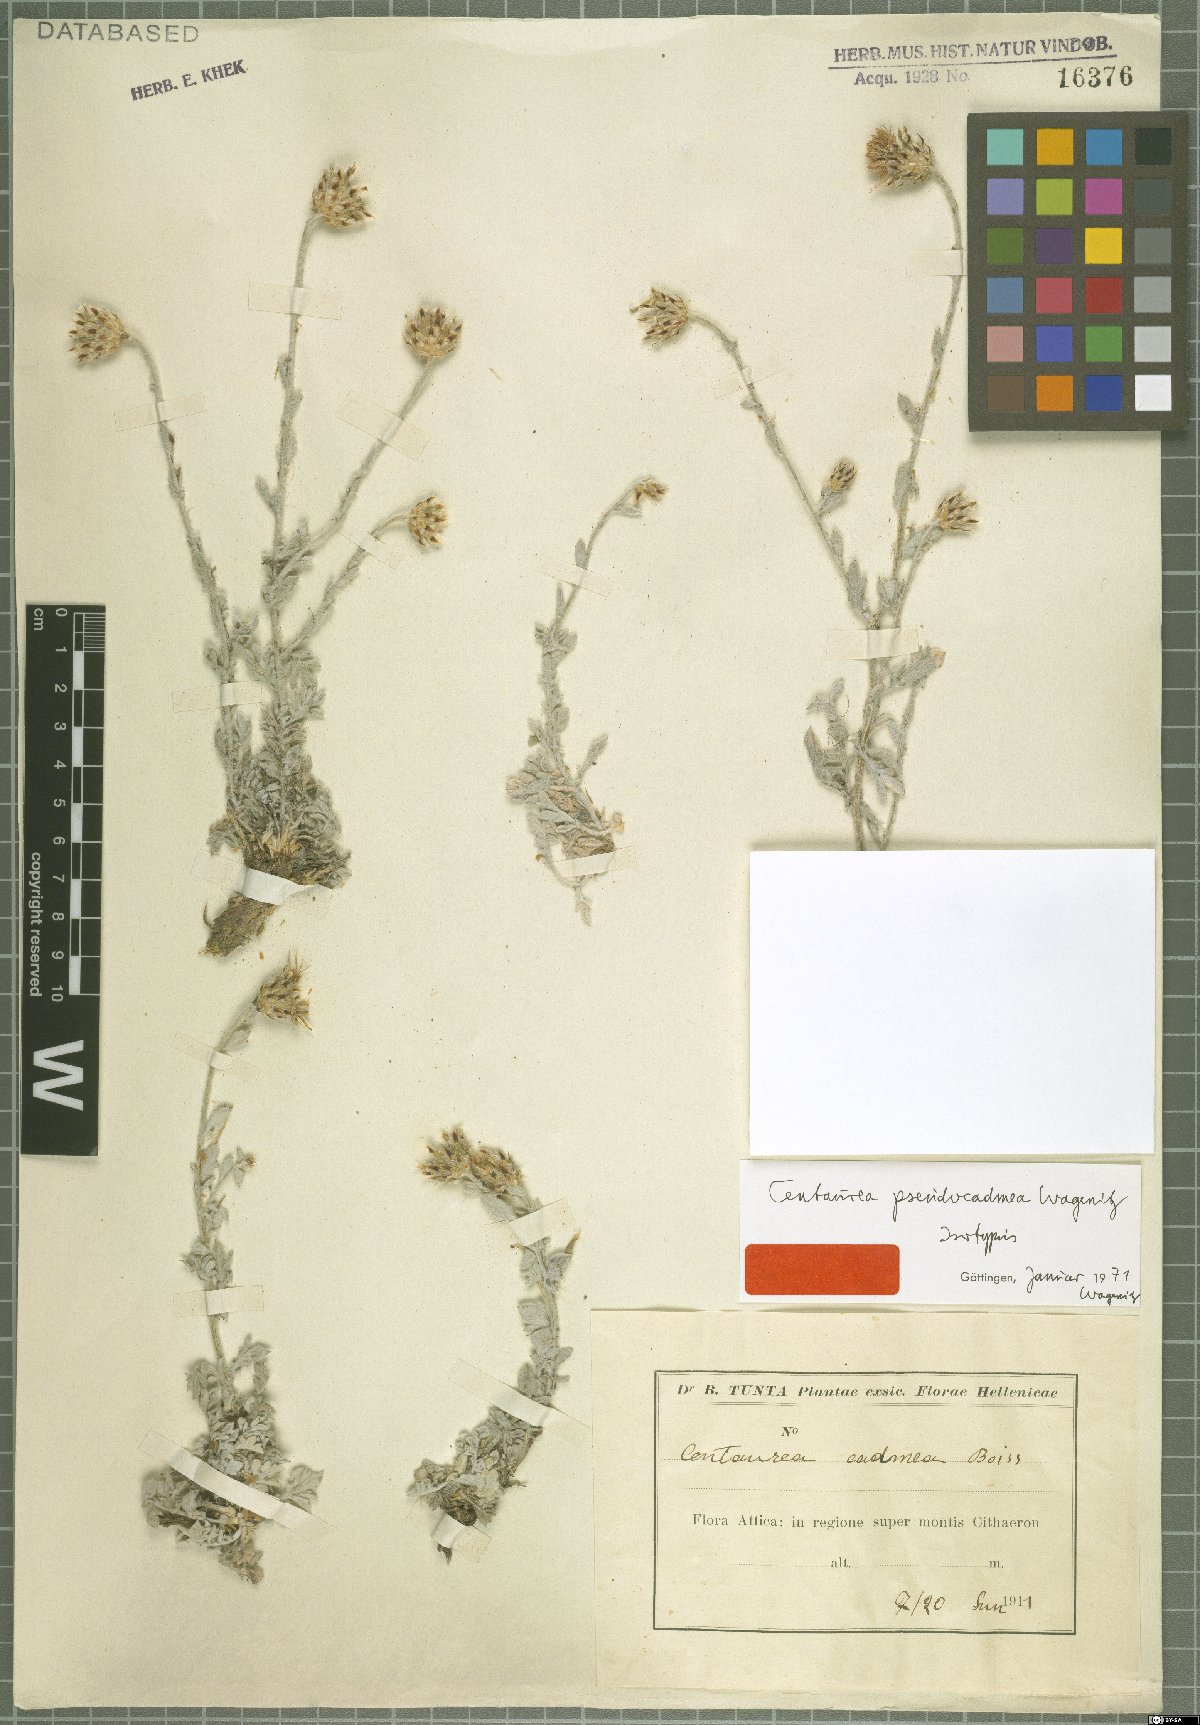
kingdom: Plantae
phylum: Tracheophyta
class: Magnoliopsida
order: Asterales
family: Asteraceae
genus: Centaurea
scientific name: Centaurea pseudocadmea
